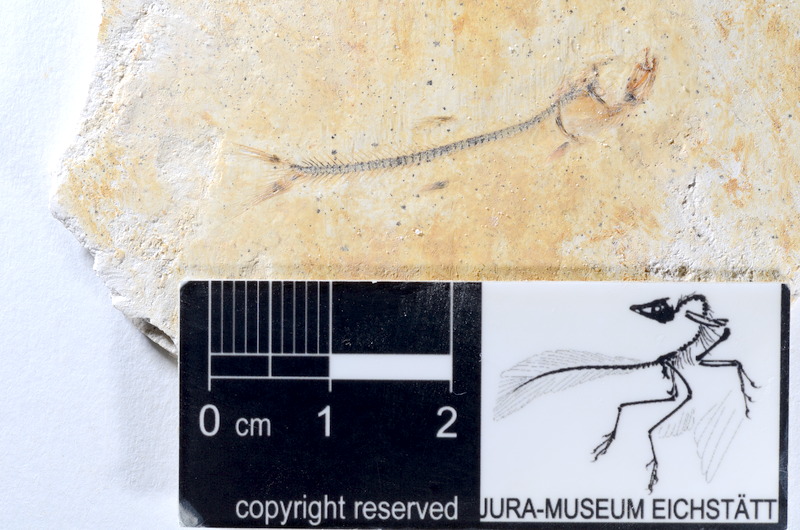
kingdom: Animalia
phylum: Chordata
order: Salmoniformes
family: Orthogonikleithridae
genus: Orthogonikleithrus
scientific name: Orthogonikleithrus hoelli
